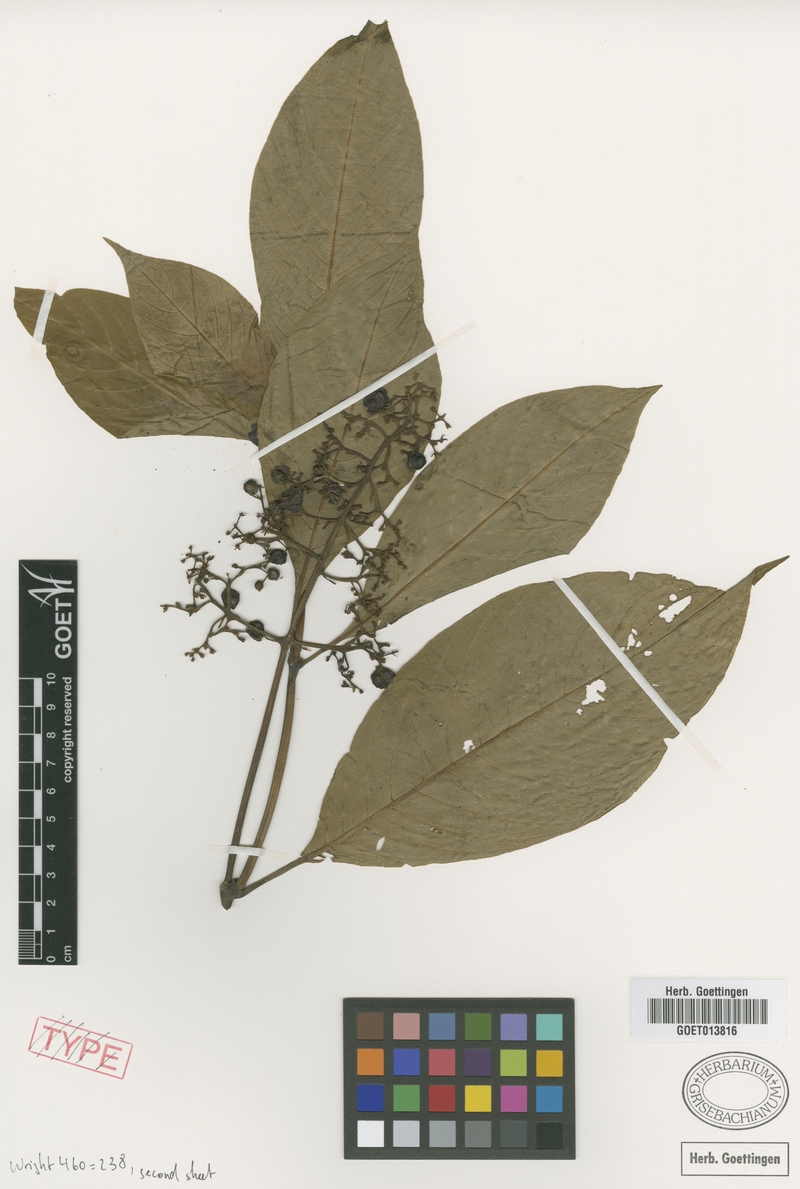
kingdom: Plantae
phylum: Tracheophyta
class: Magnoliopsida
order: Gentianales
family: Rubiaceae
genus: Palicourea
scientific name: Palicourea hoffmannseggiana
